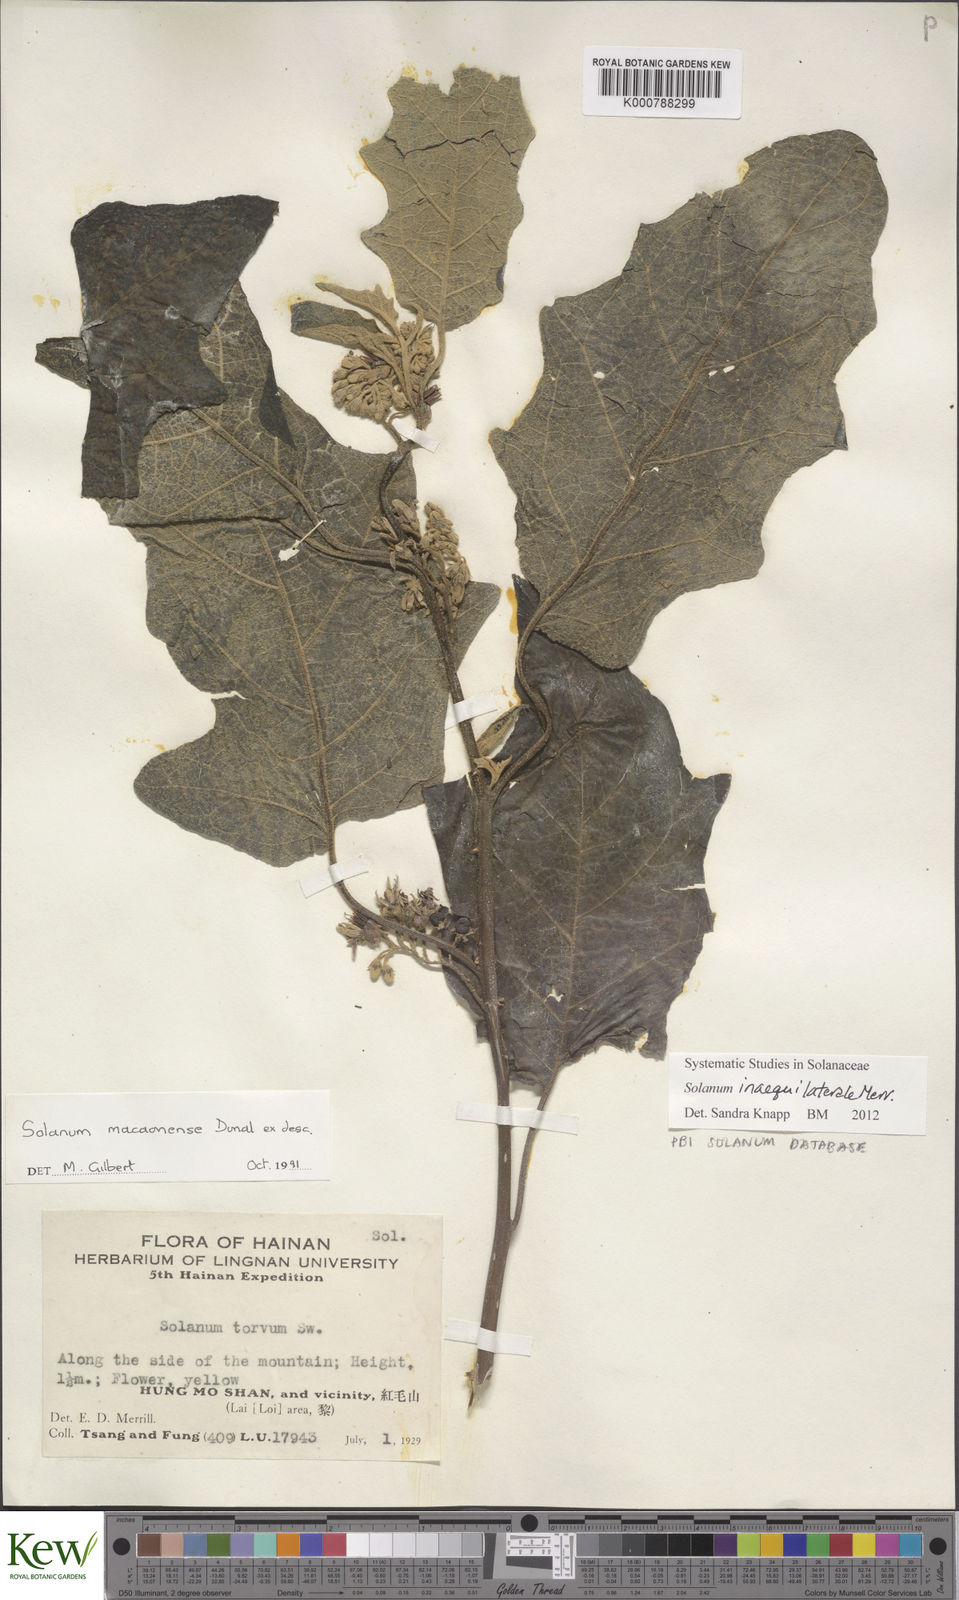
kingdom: Plantae
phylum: Tracheophyta
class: Magnoliopsida
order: Solanales
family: Solanaceae
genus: Solanum
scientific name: Solanum pseudosaponaceum
